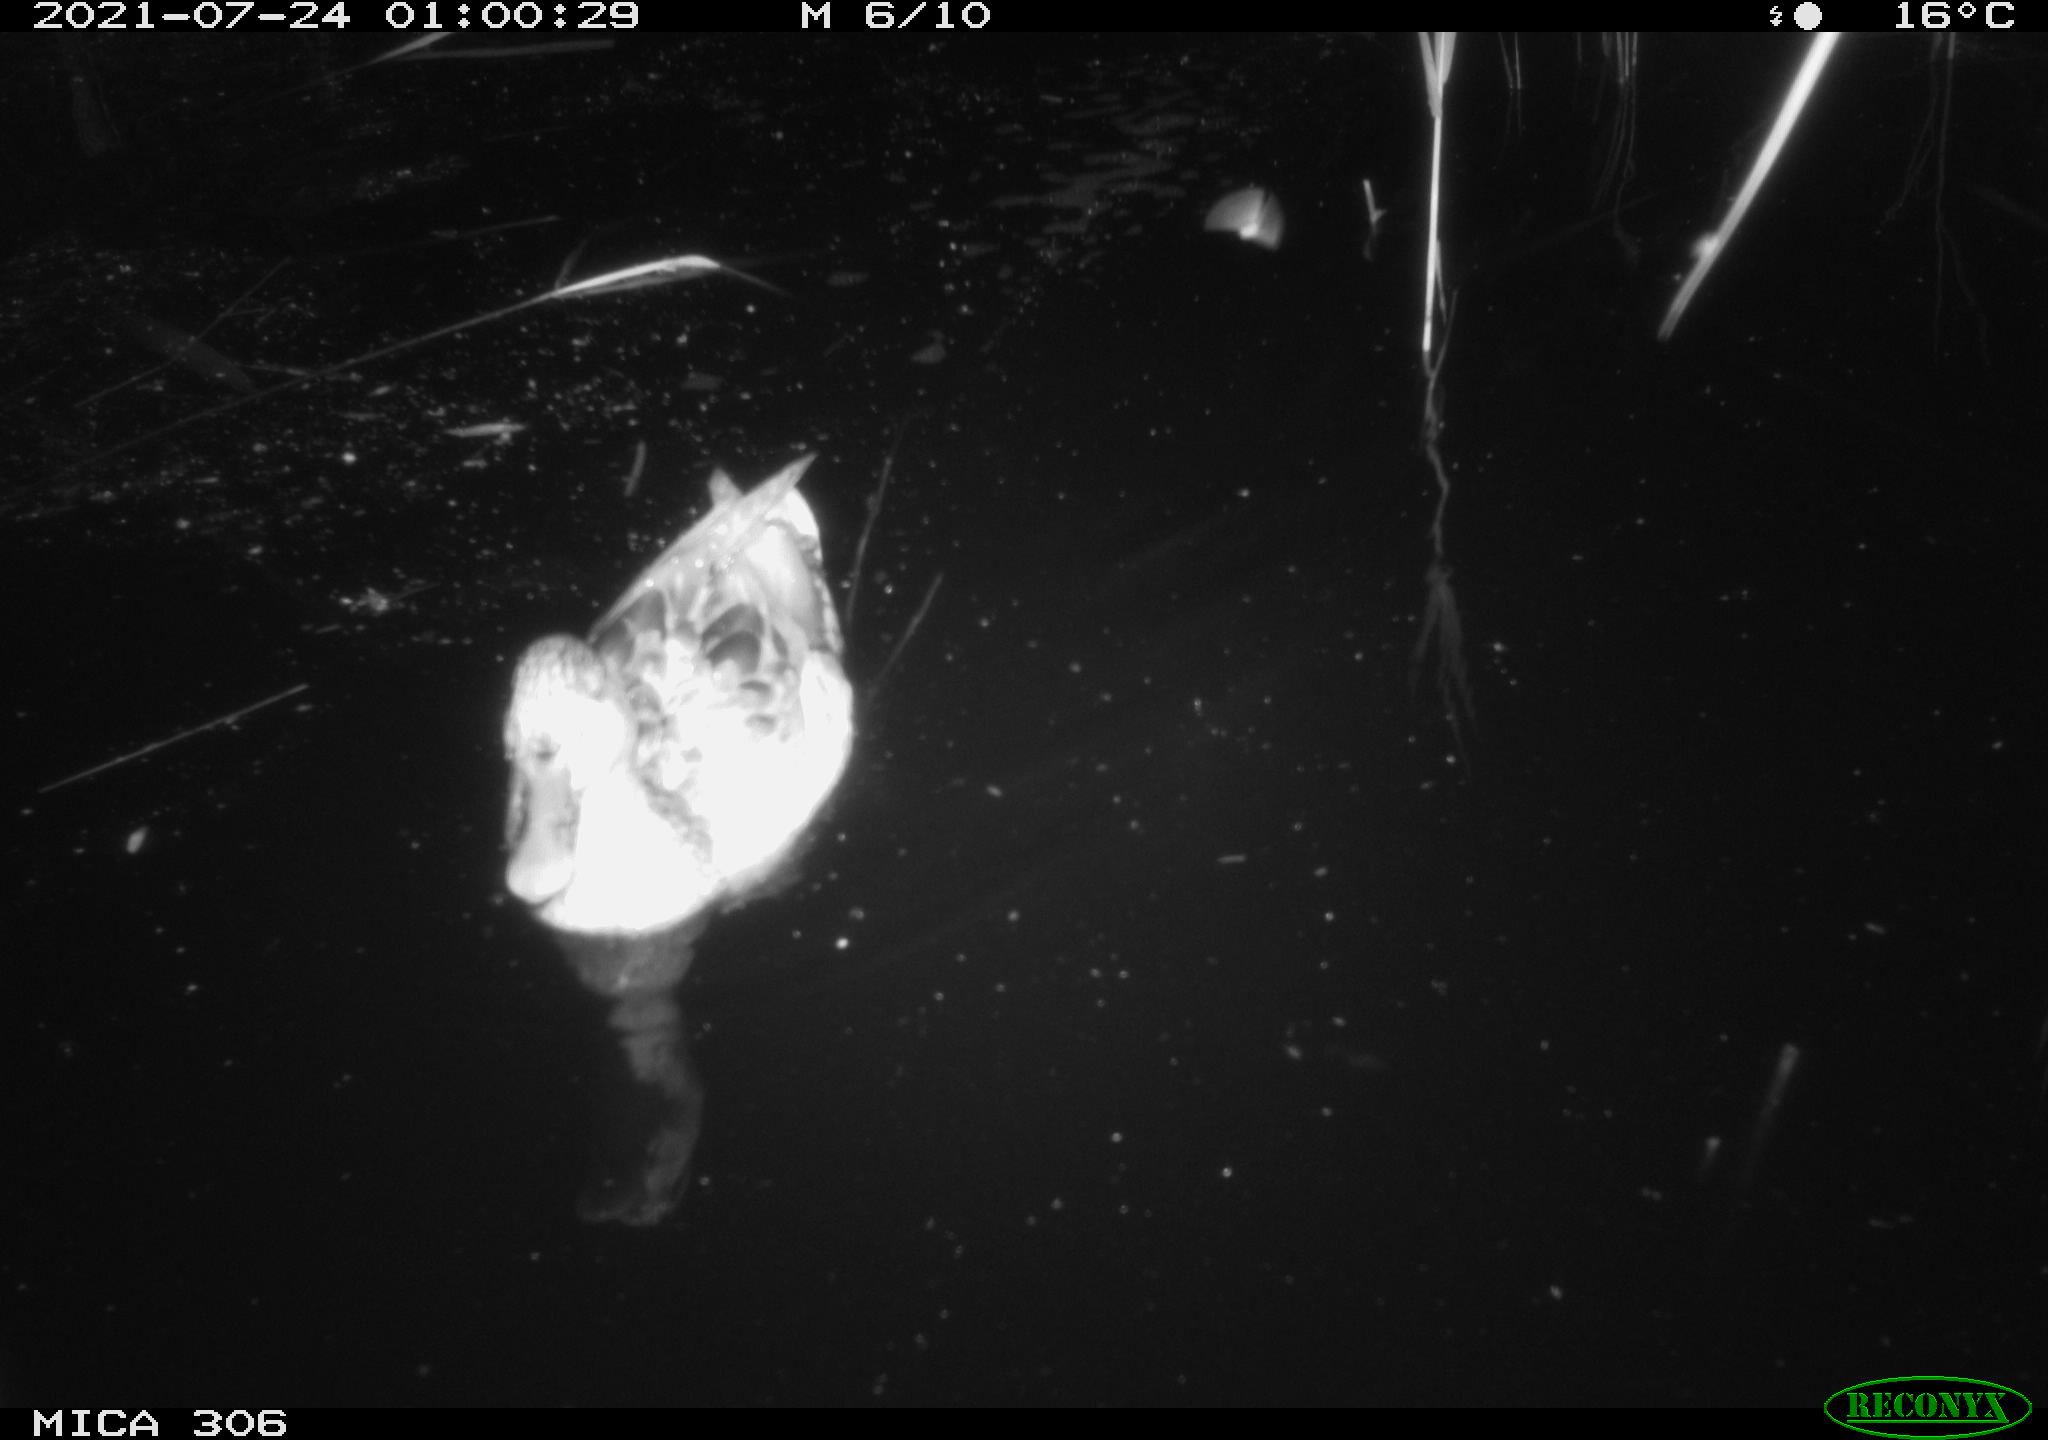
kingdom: Animalia
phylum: Chordata
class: Aves
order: Anseriformes
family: Anatidae
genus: Anas
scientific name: Anas
